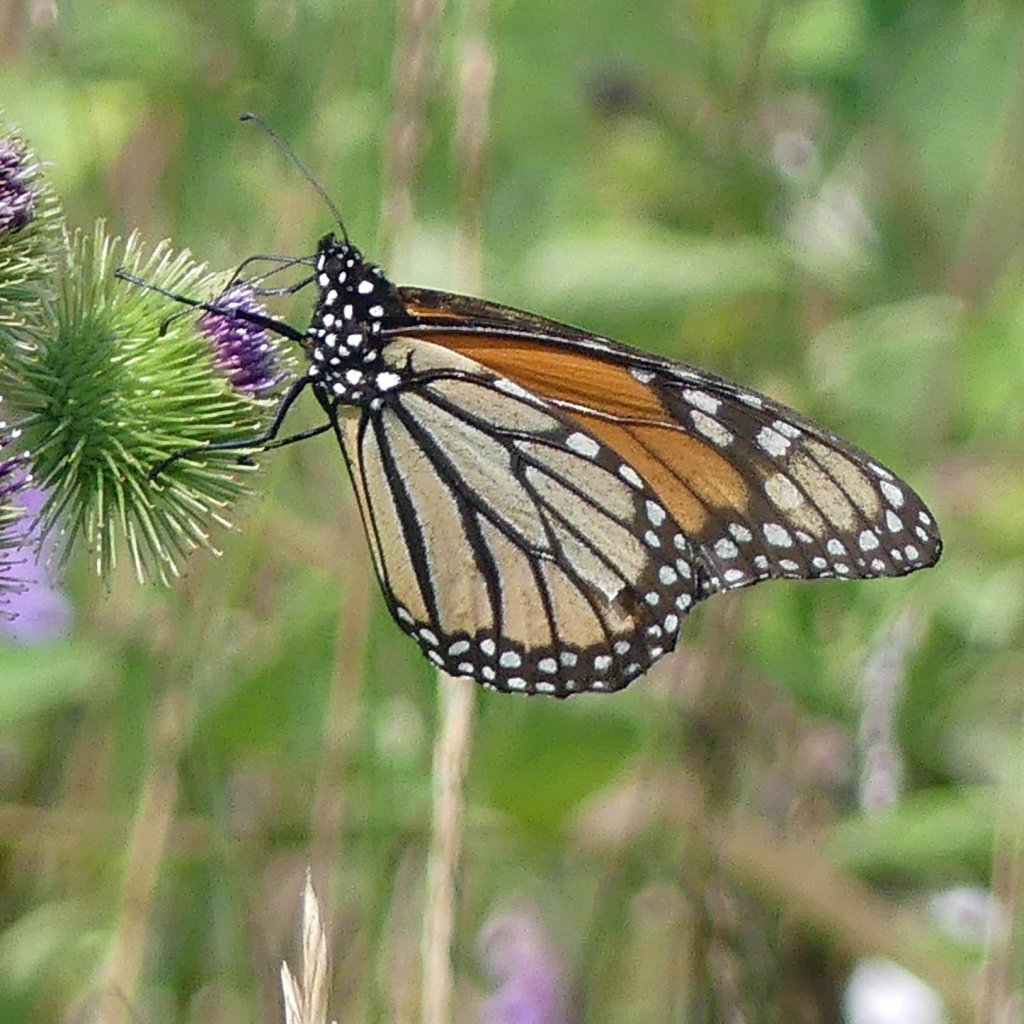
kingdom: Animalia
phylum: Arthropoda
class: Insecta
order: Lepidoptera
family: Nymphalidae
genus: Danaus
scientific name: Danaus plexippus
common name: Monarch
